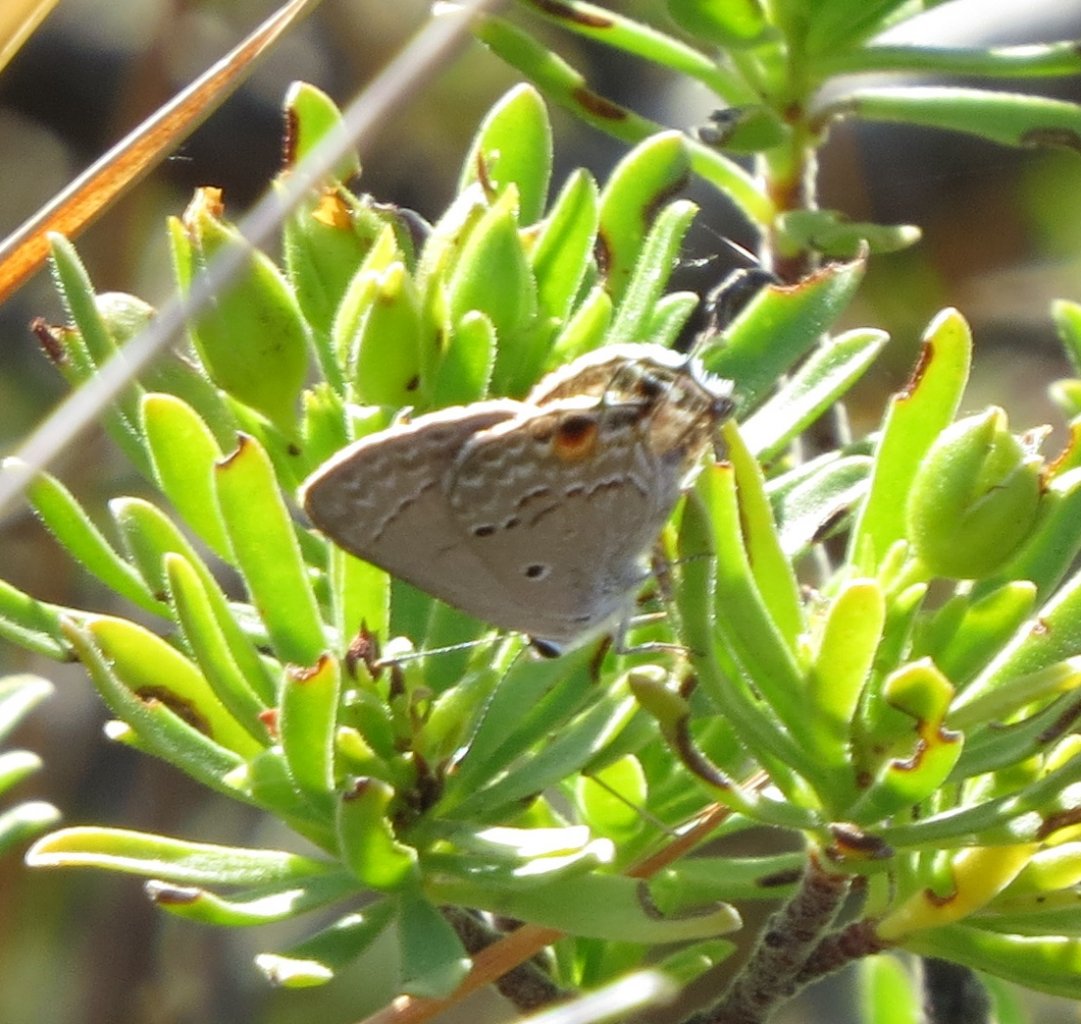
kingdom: Animalia
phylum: Arthropoda
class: Insecta
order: Lepidoptera
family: Lycaenidae
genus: Callicista
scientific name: Callicista columella
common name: Mallow Scrub-Hairstreak
